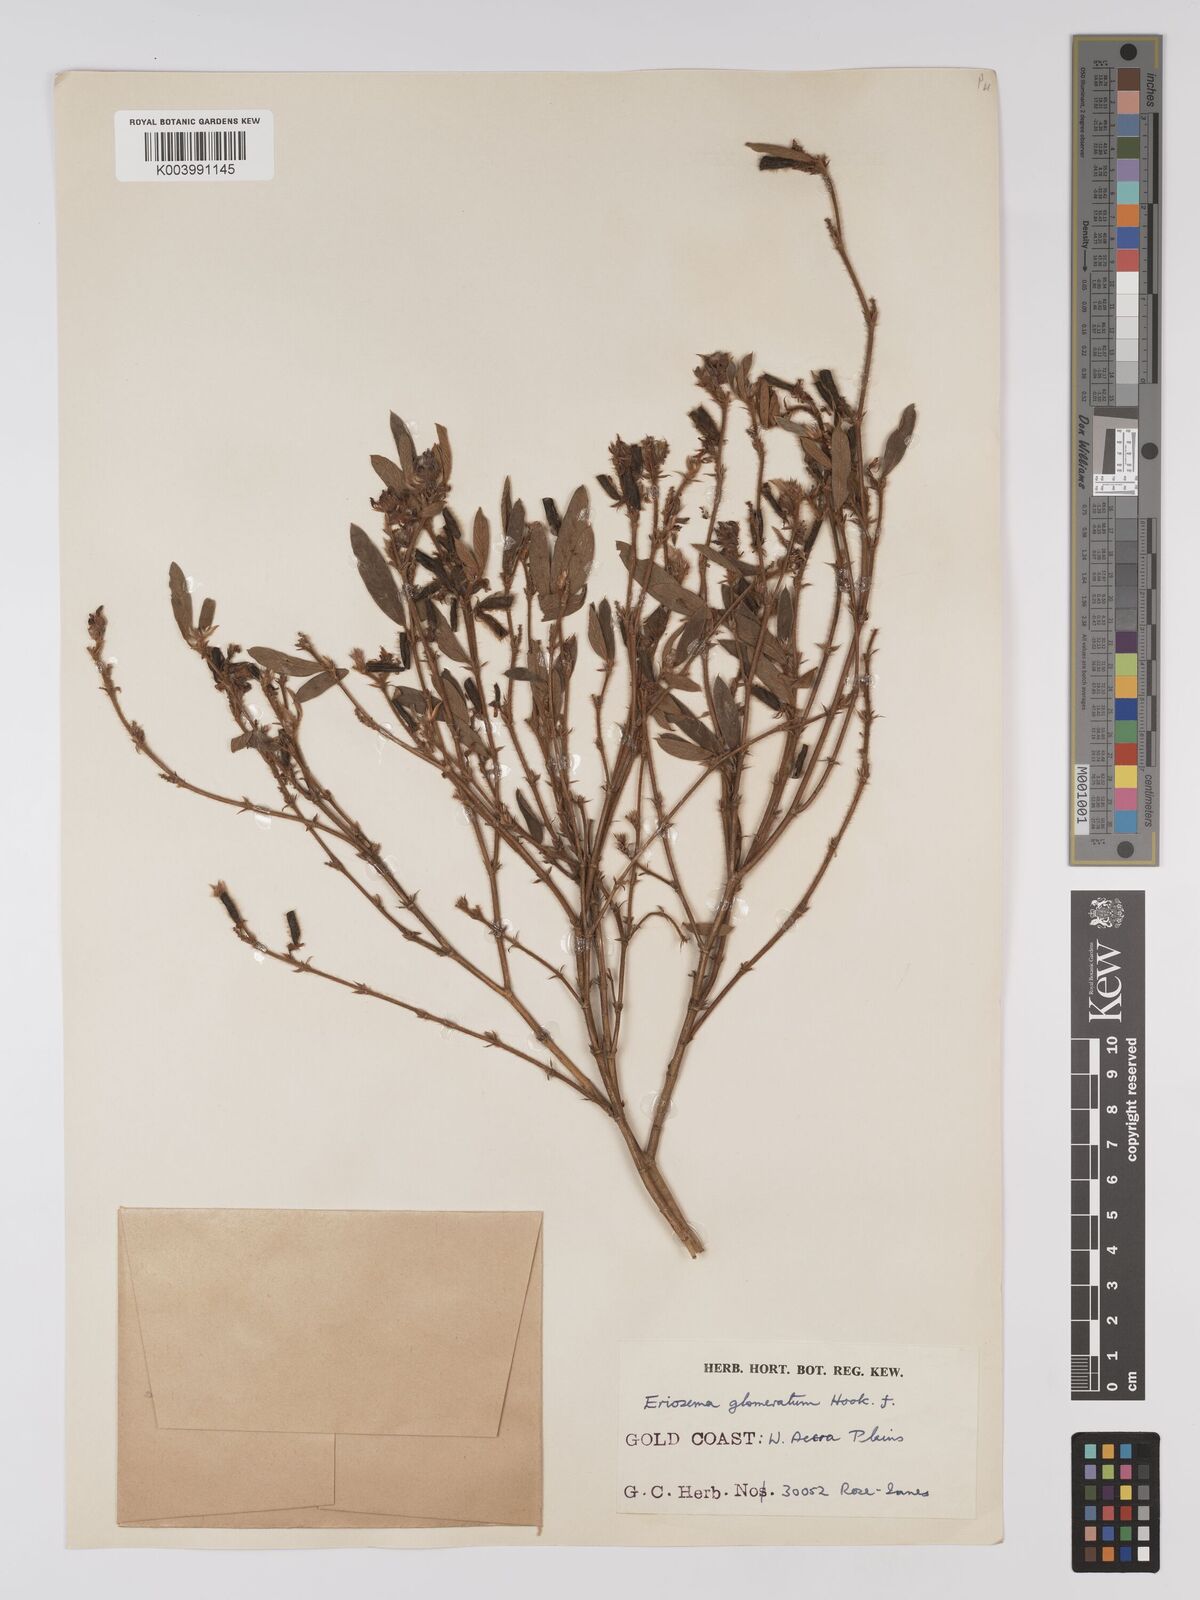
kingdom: Plantae
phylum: Tracheophyta
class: Magnoliopsida
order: Fabales
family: Fabaceae
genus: Eriosema
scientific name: Eriosema glomeratum
